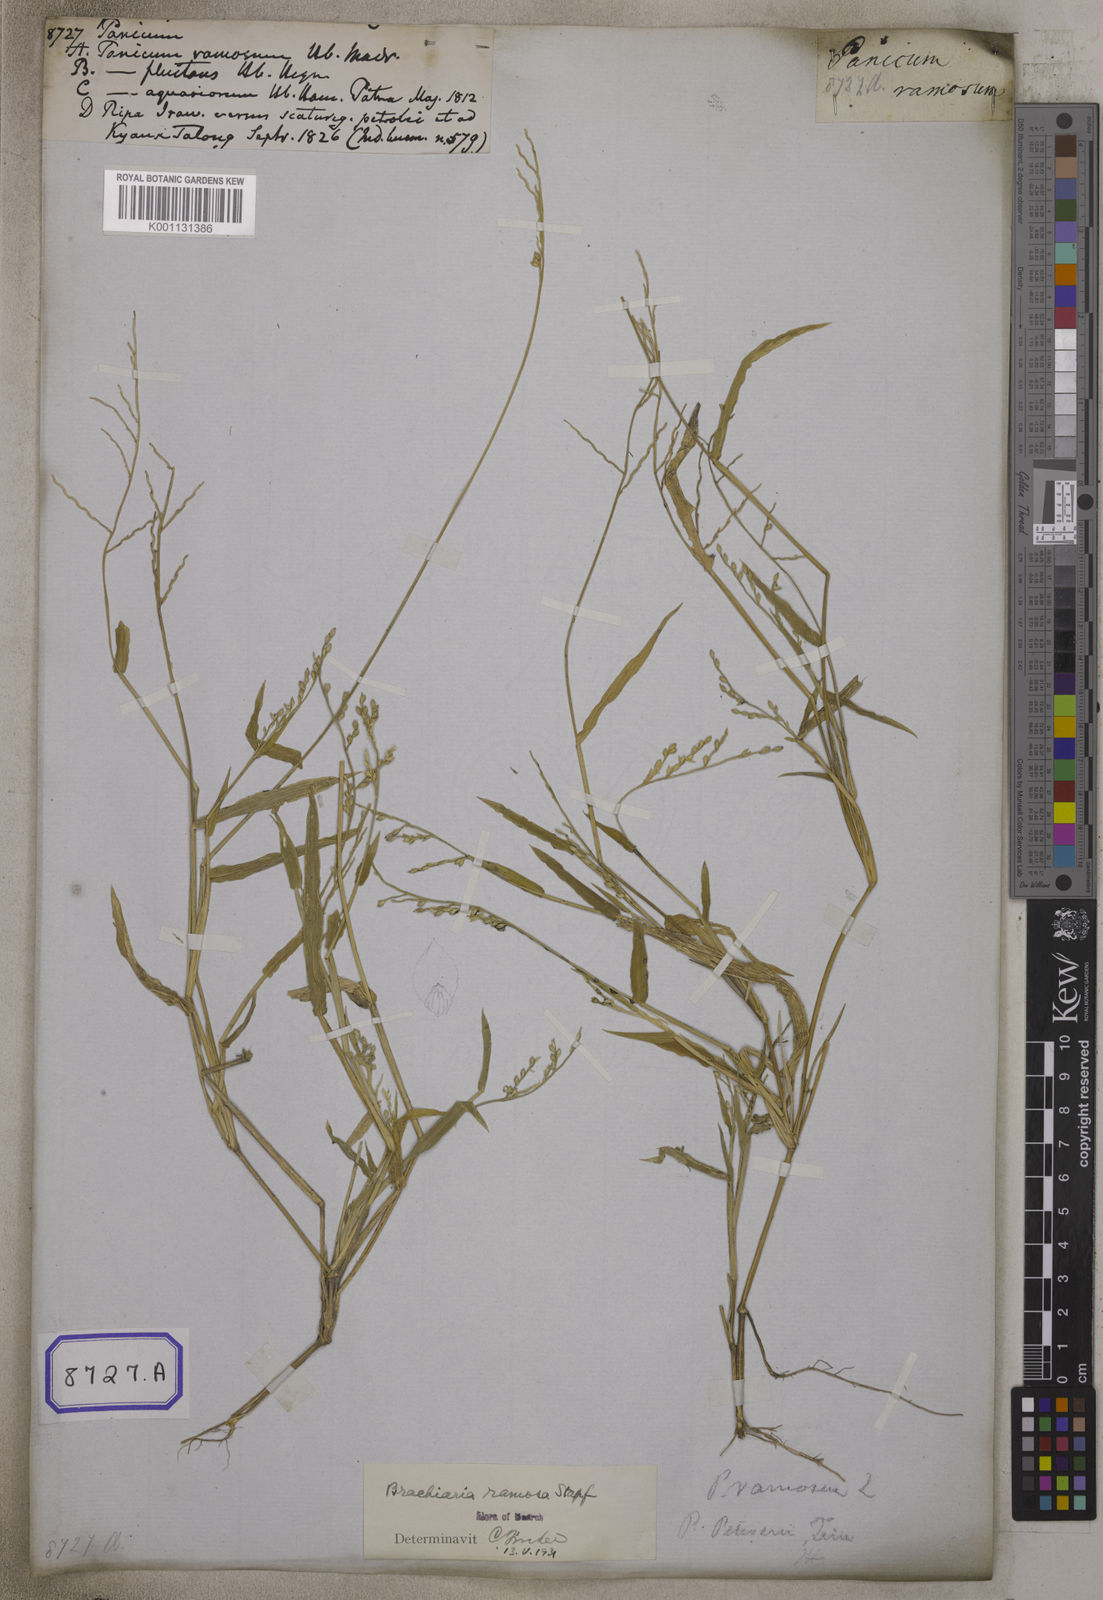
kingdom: Plantae
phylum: Tracheophyta
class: Liliopsida
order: Poales
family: Poaceae
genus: Panicum
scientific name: Panicum
